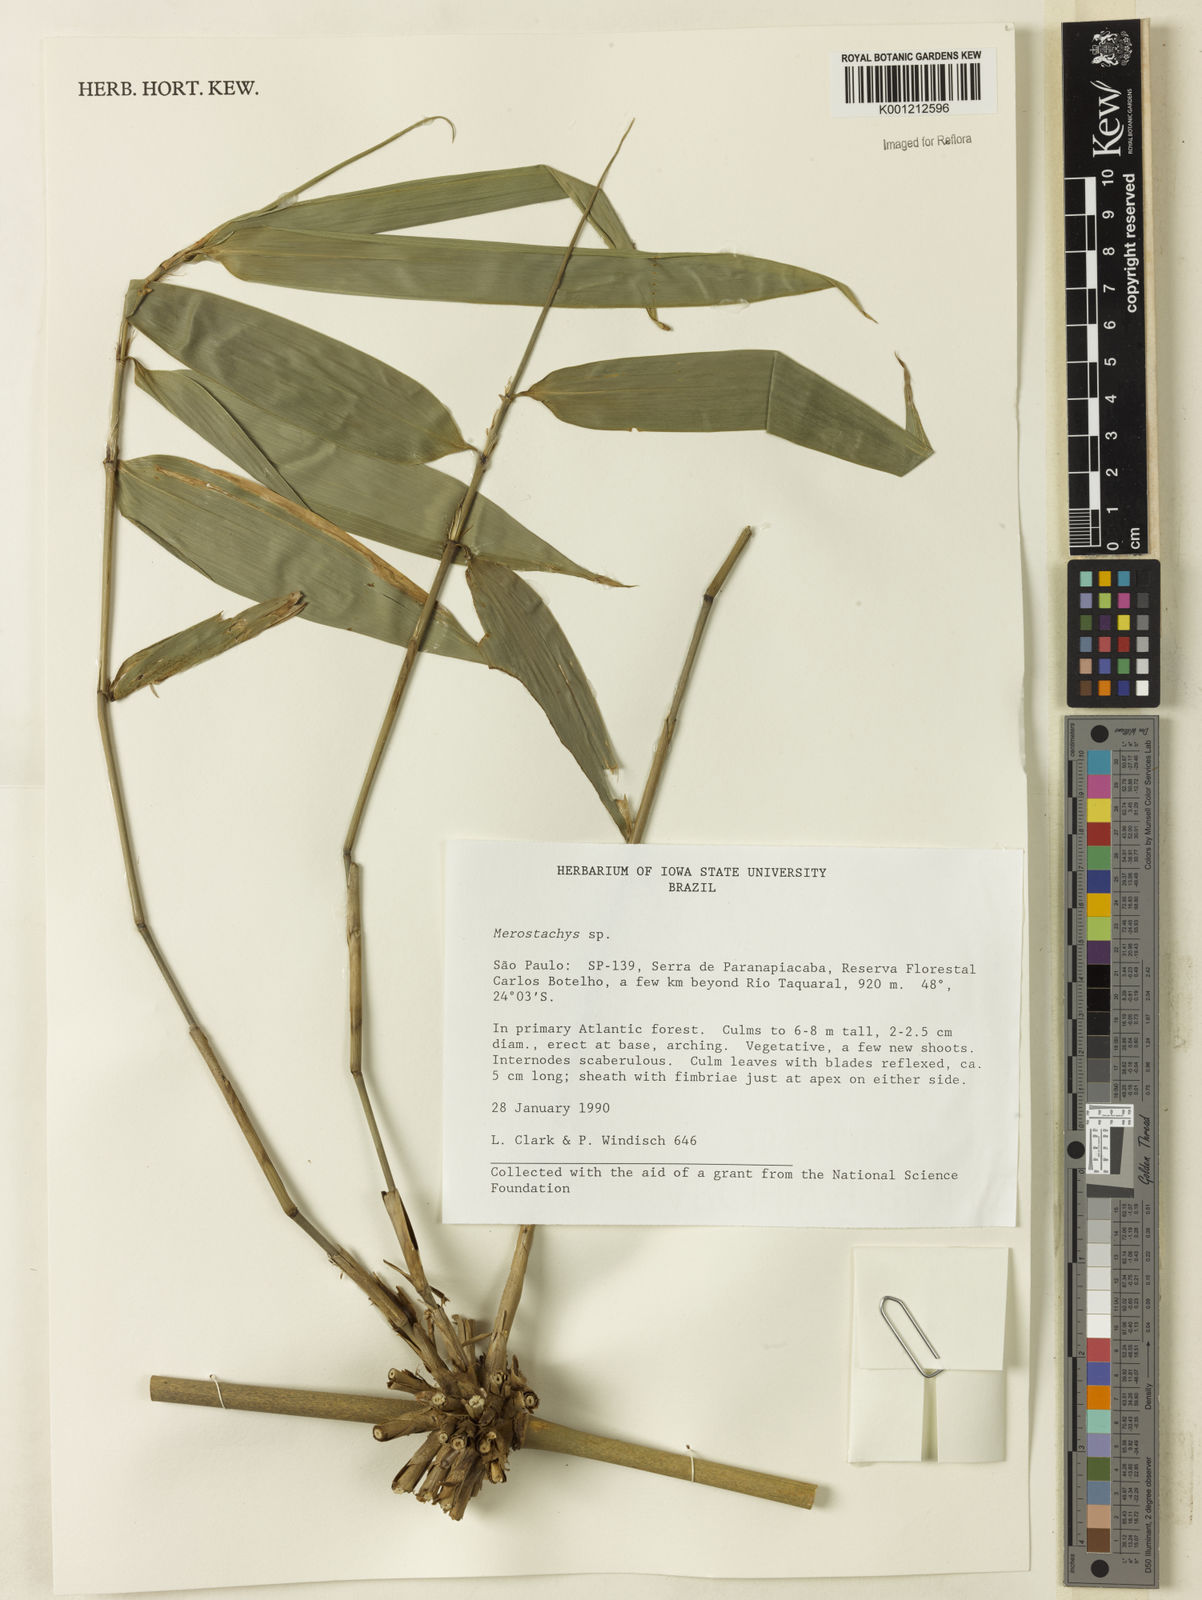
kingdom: Plantae
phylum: Tracheophyta
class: Liliopsida
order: Poales
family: Poaceae
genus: Merostachys
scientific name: Merostachys
